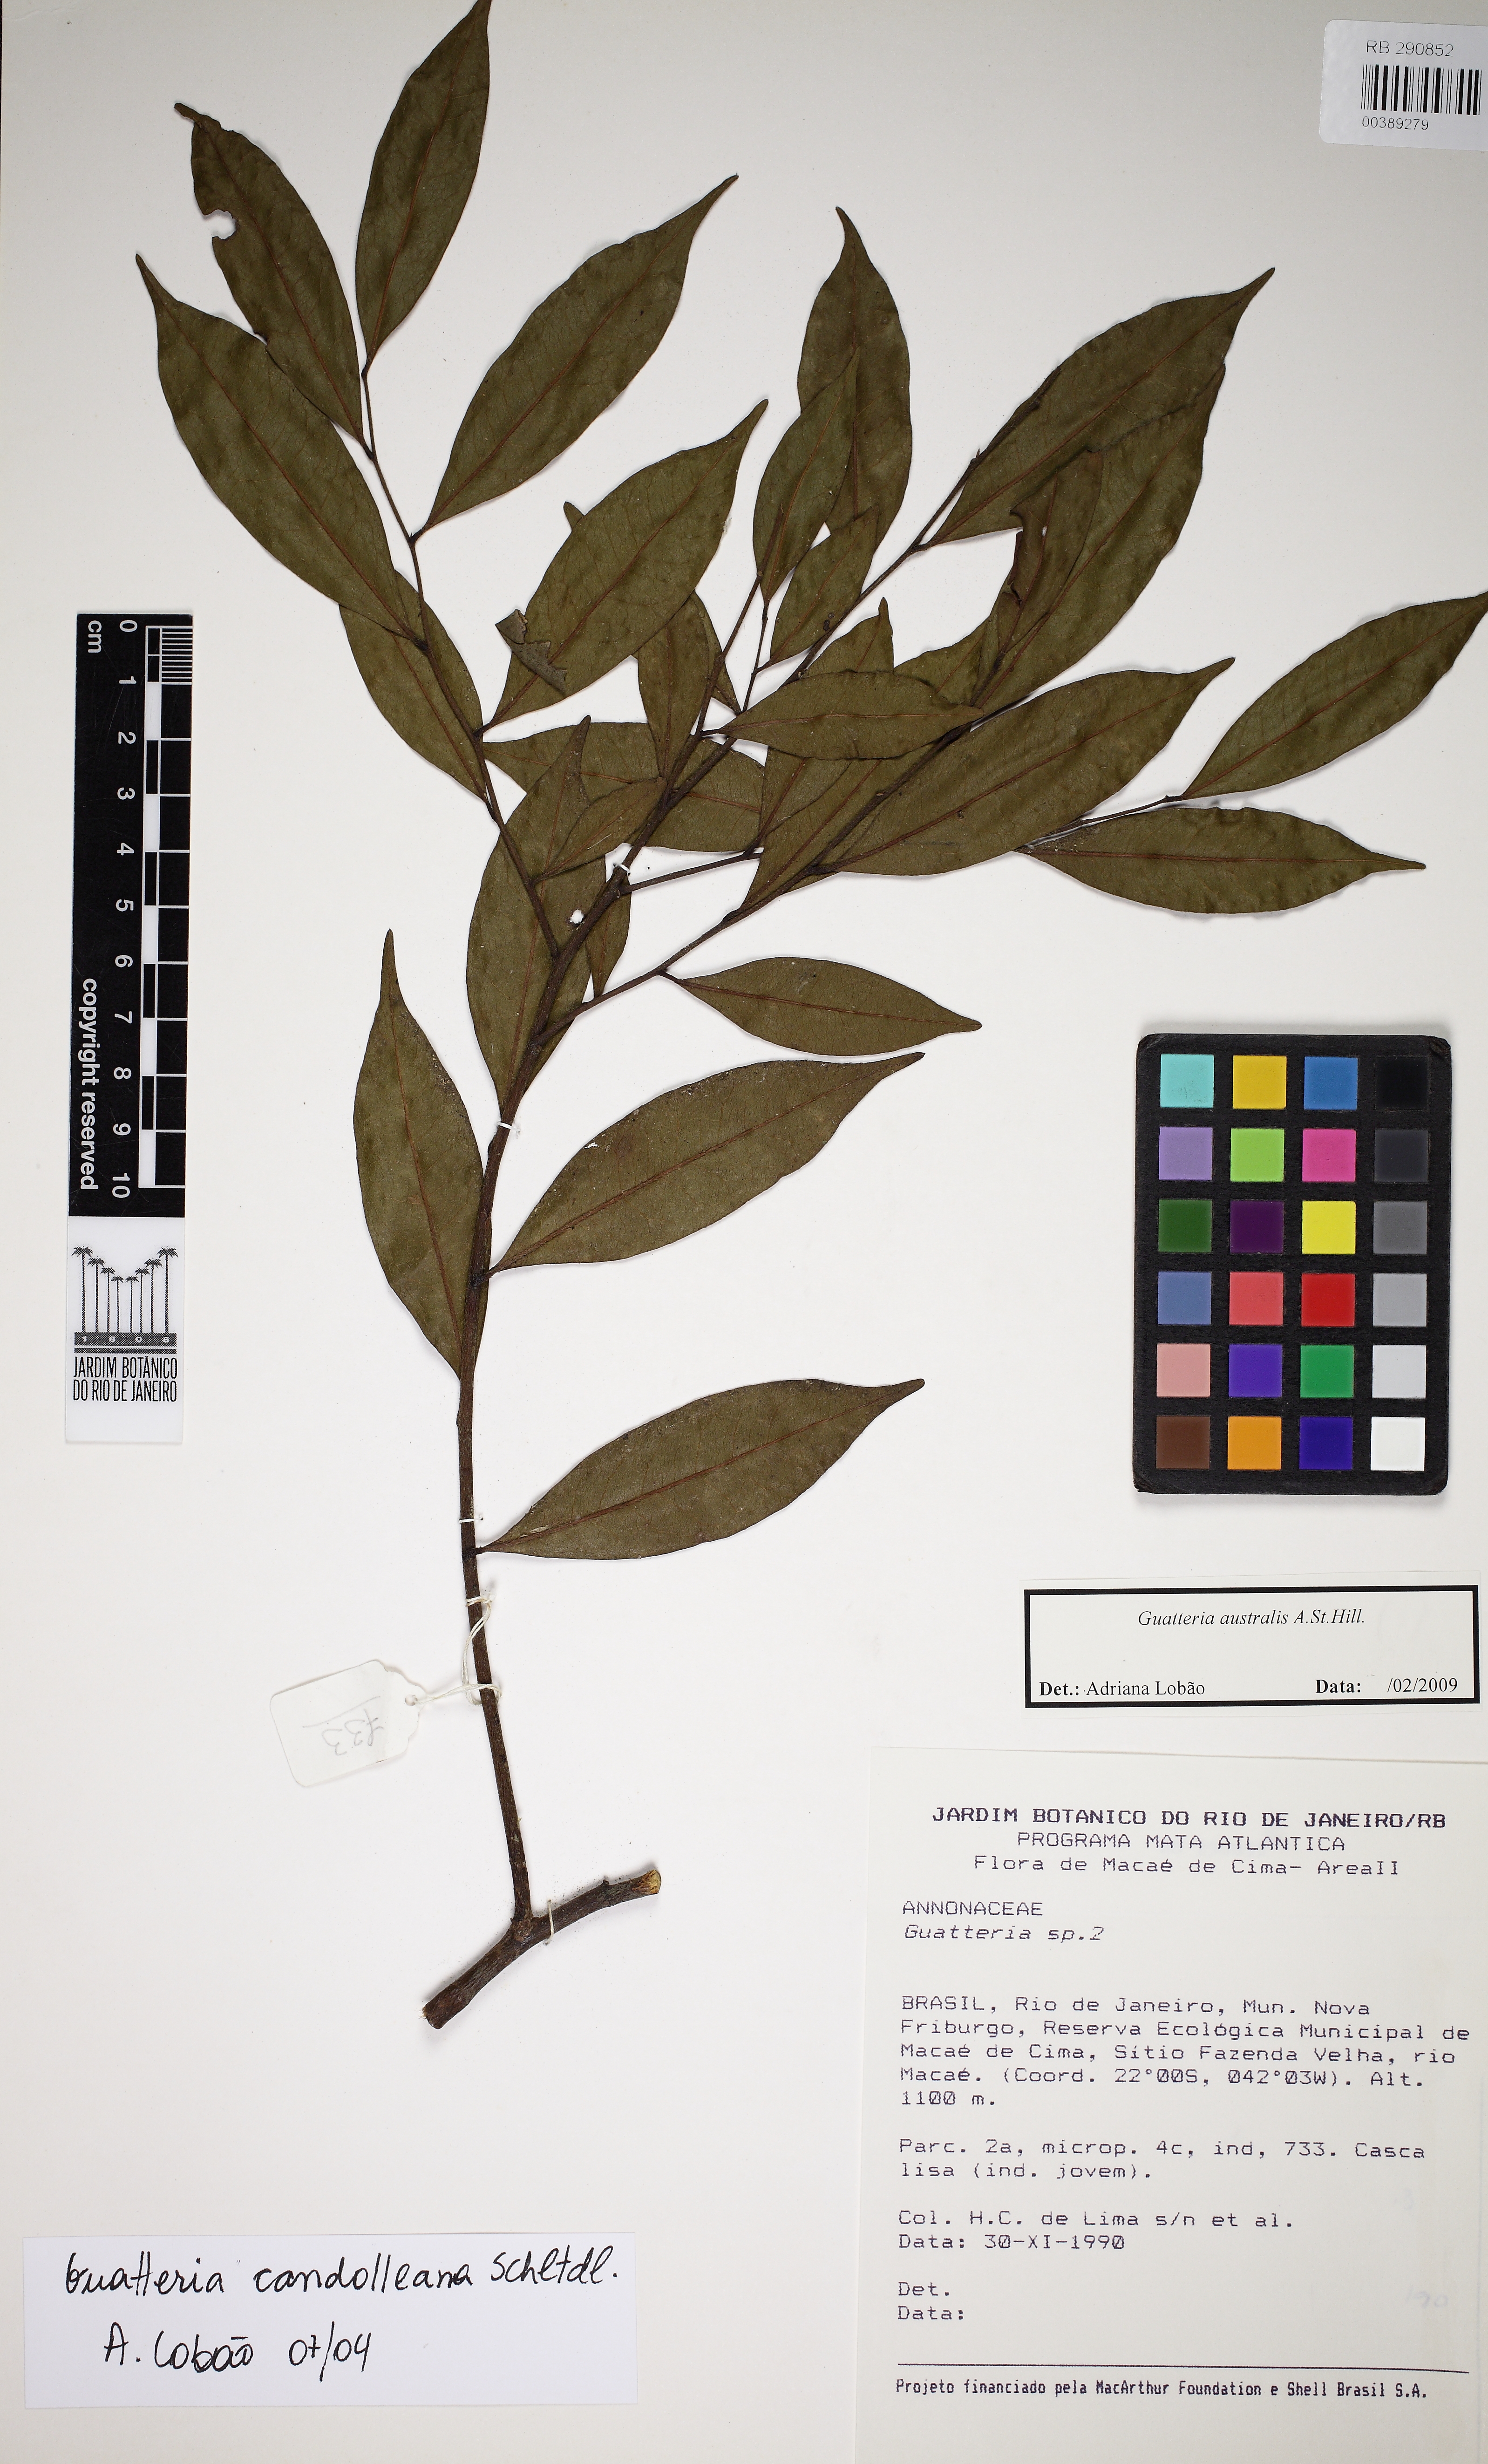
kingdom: Plantae
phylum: Tracheophyta
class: Magnoliopsida
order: Magnoliales
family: Annonaceae
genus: Guatteria
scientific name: Guatteria australis
